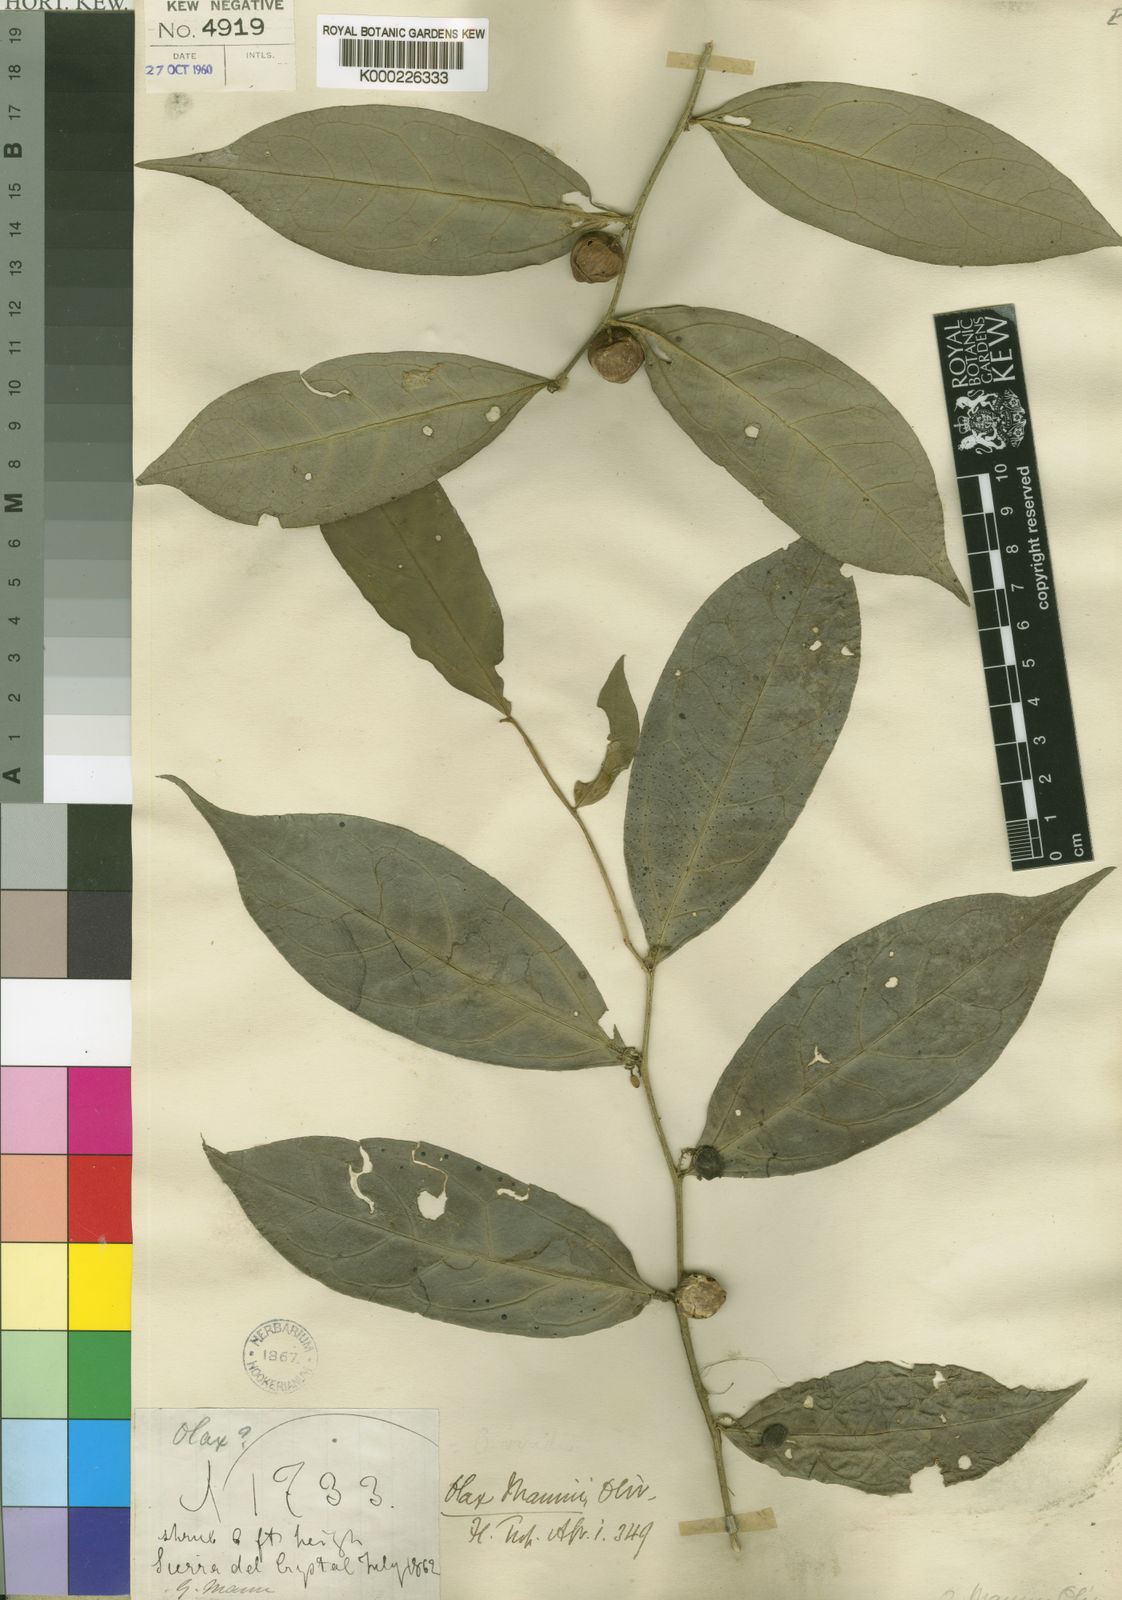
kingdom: Plantae
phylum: Tracheophyta
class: Magnoliopsida
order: Santalales
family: Olacaceae
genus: Olax
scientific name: Olax latifolia
